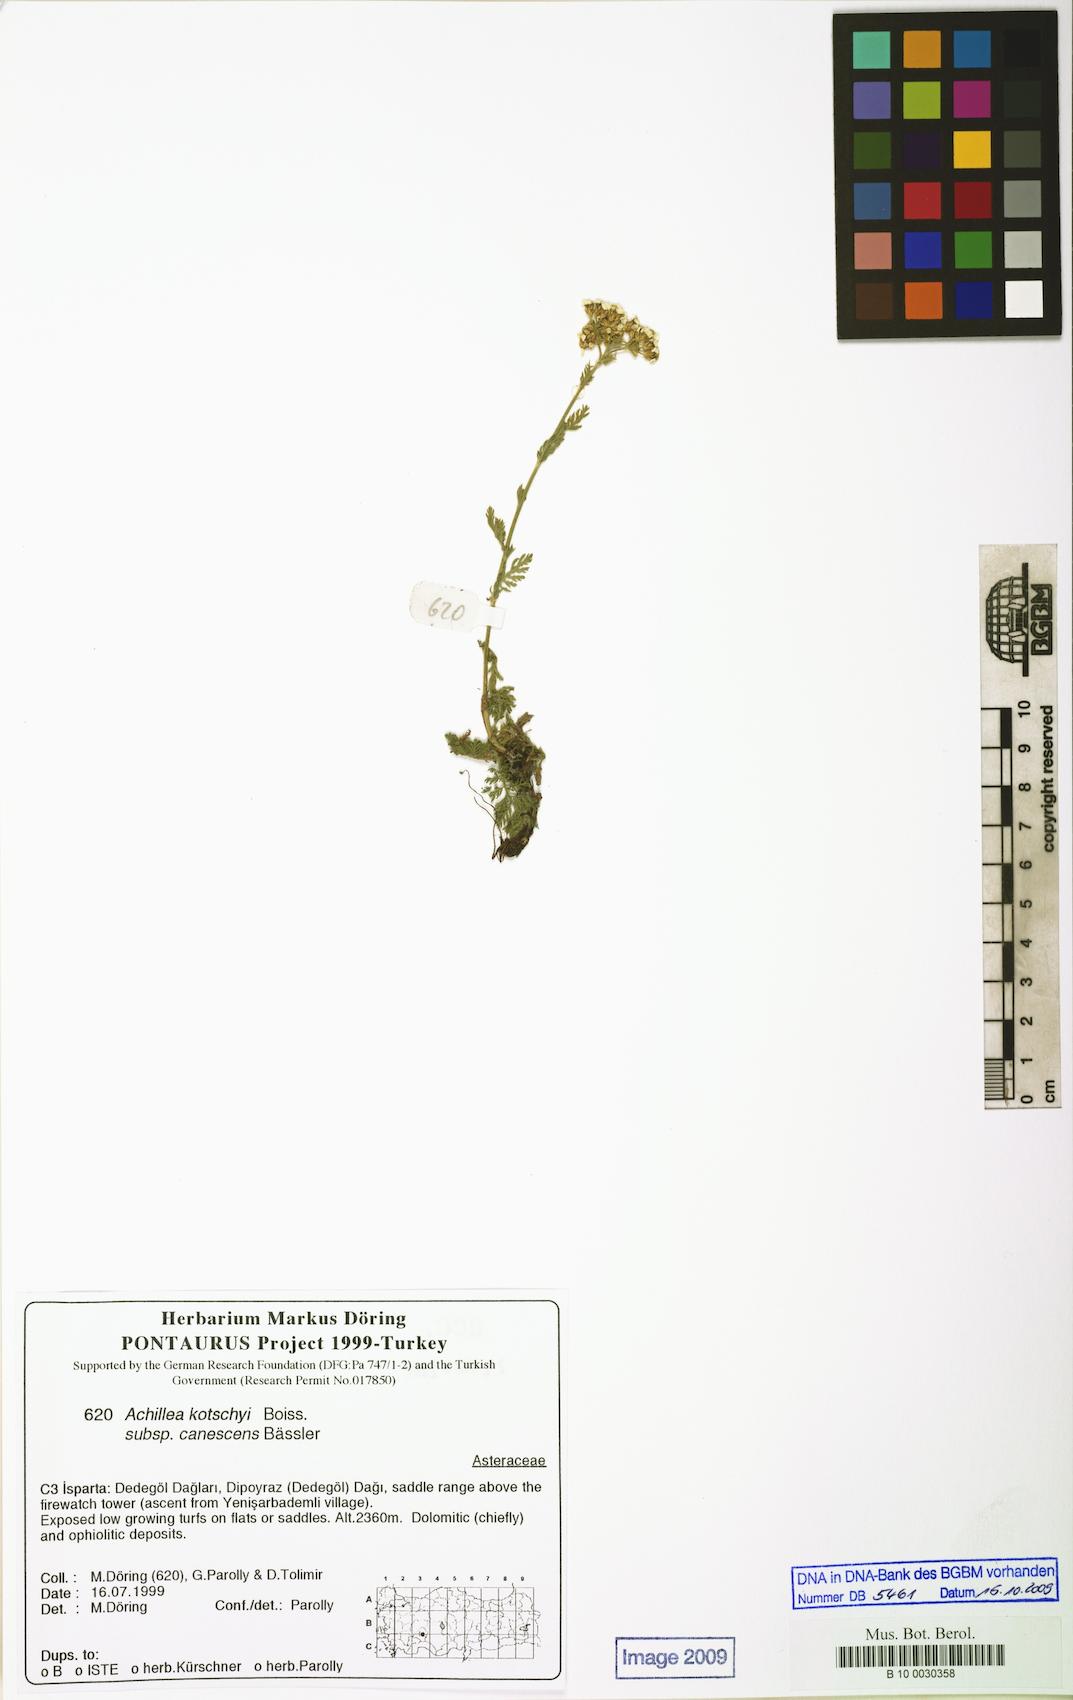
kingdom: Plantae
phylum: Tracheophyta
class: Magnoliopsida
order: Asterales
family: Asteraceae
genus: Achillea
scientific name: Achillea kotschyi
